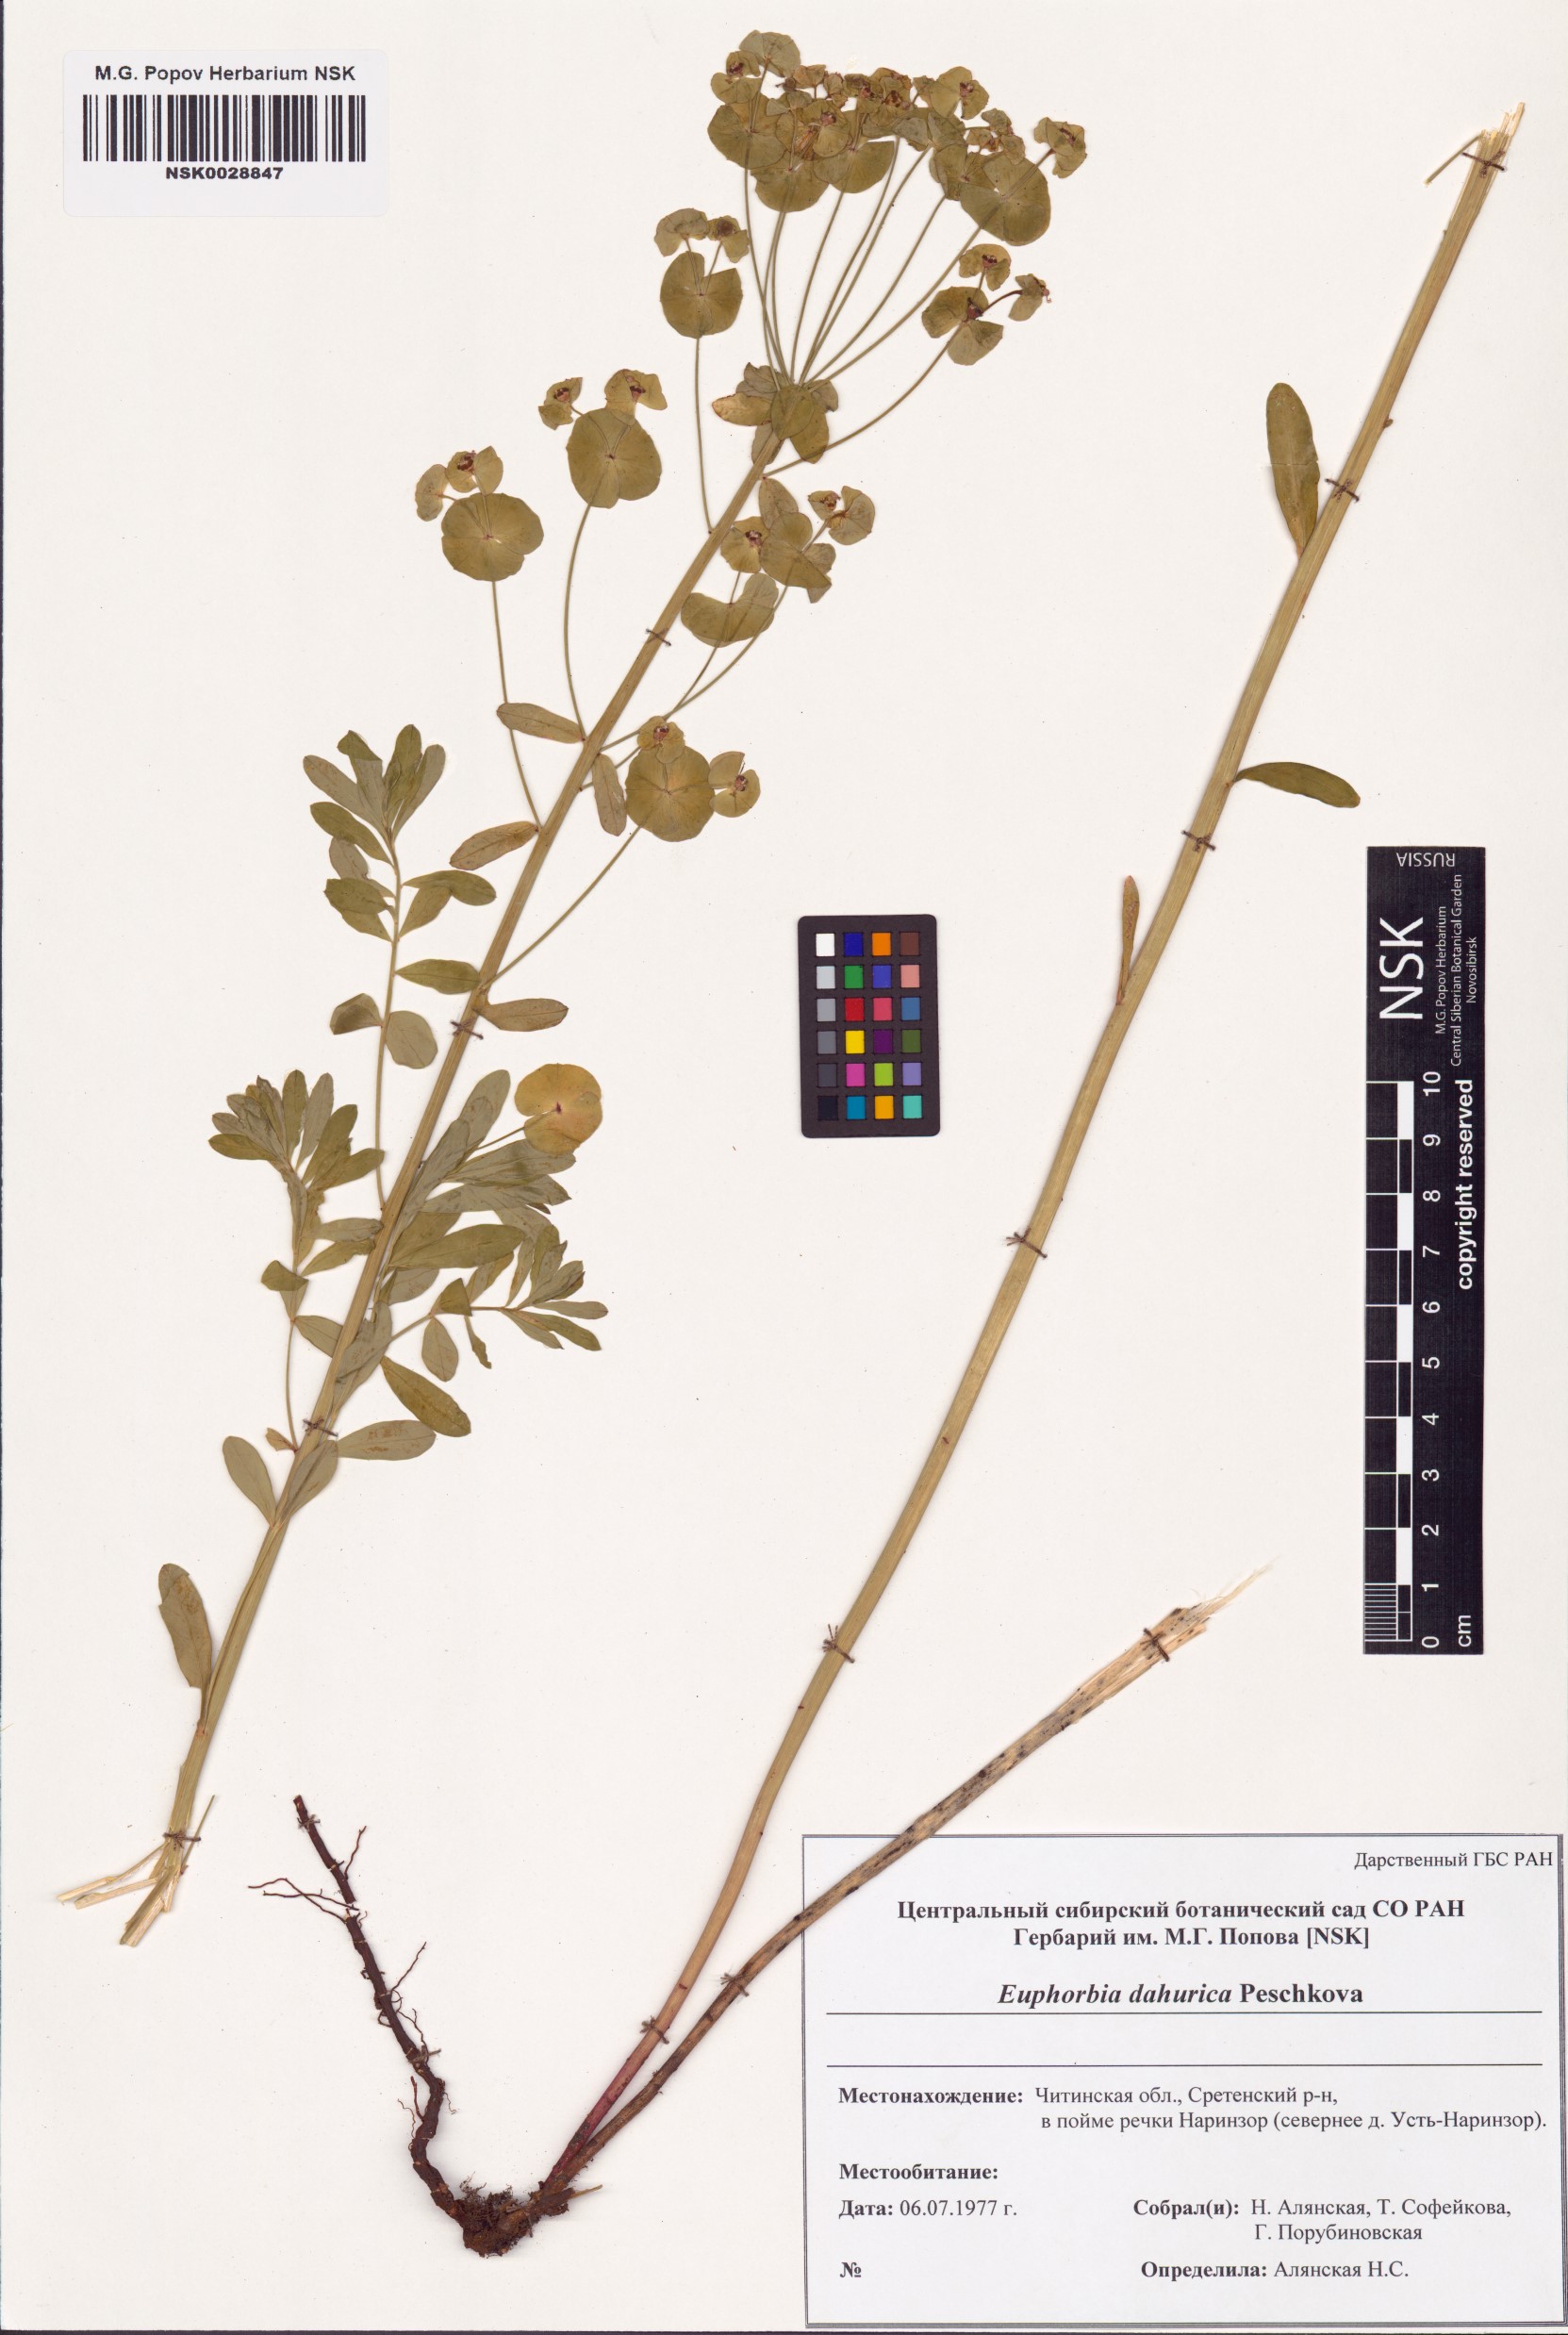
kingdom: Plantae
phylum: Tracheophyta
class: Magnoliopsida
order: Malpighiales
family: Euphorbiaceae
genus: Euphorbia
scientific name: Euphorbia dahurica
